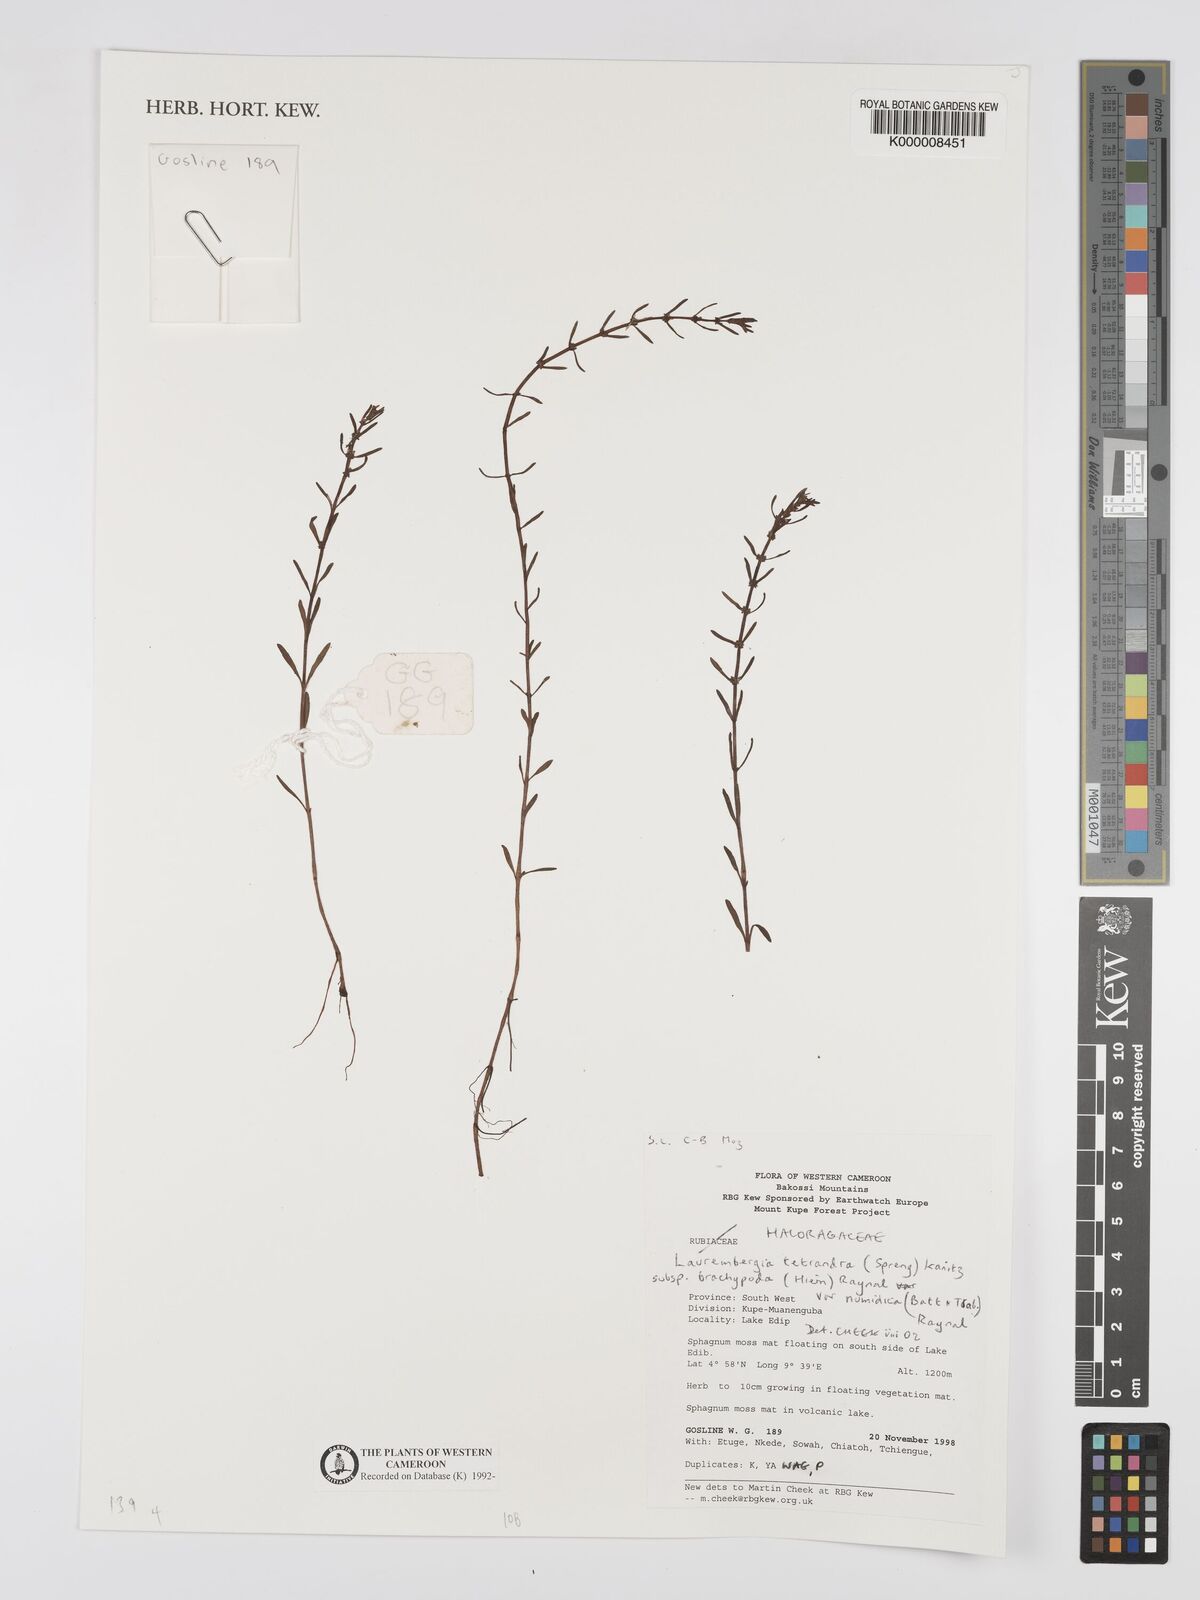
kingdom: Plantae
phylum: Tracheophyta
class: Magnoliopsida
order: Saxifragales
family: Haloragaceae
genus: Laurembergia
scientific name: Laurembergia tetrandra
